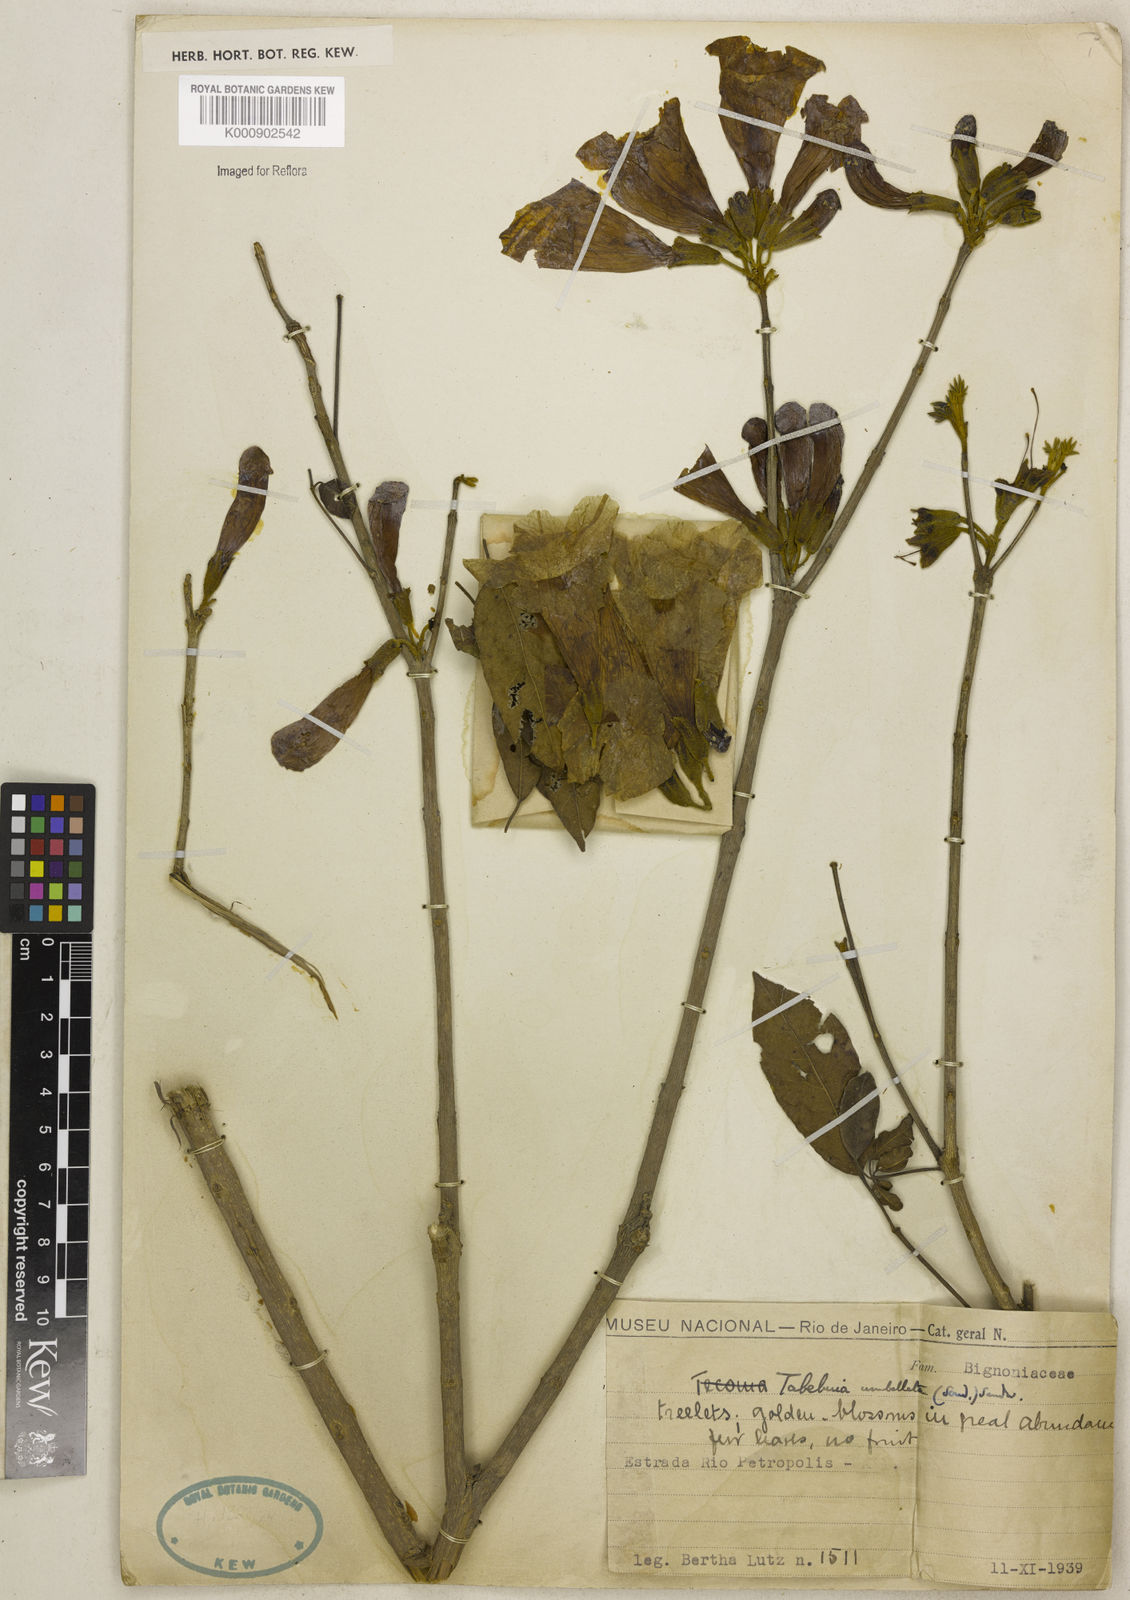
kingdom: Plantae
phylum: Tracheophyta
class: Magnoliopsida
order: Lamiales
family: Bignoniaceae
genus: Handroanthus
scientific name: Handroanthus umbellatus
